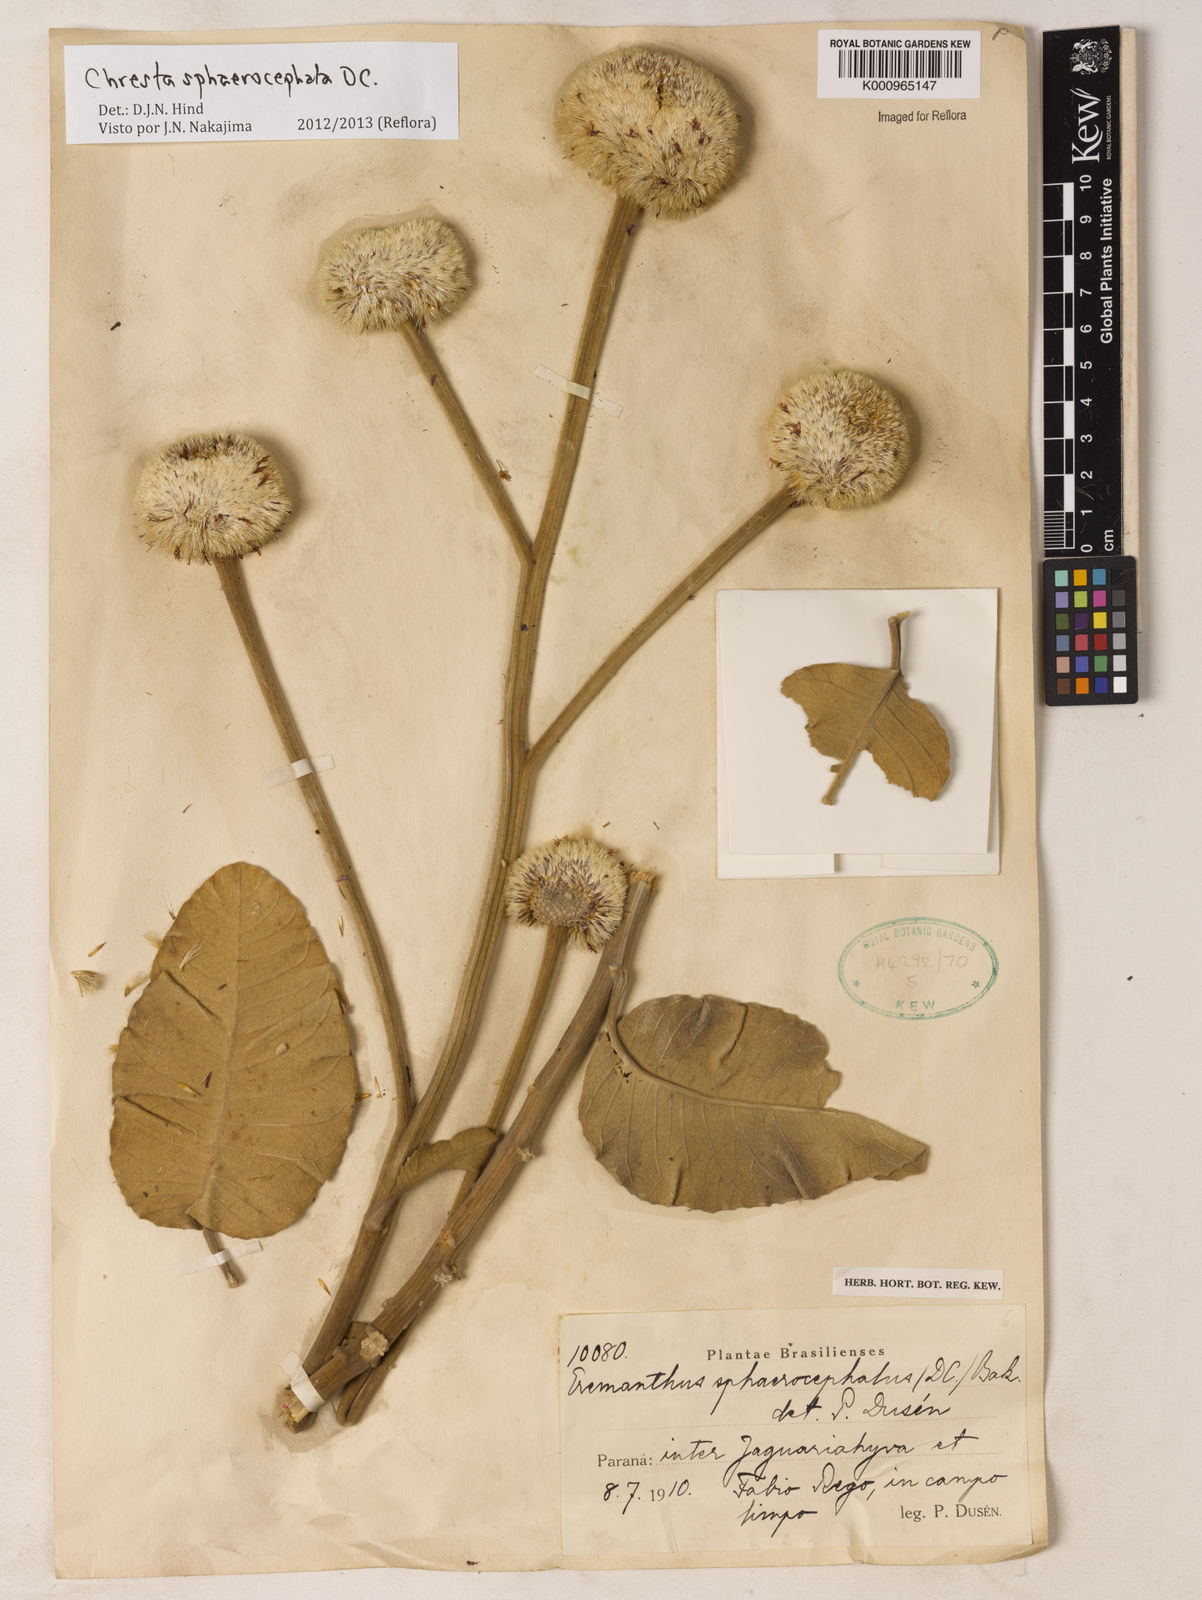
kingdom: Plantae
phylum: Tracheophyta
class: Magnoliopsida
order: Asterales
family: Asteraceae
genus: Chresta
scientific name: Chresta sphaerocephala
